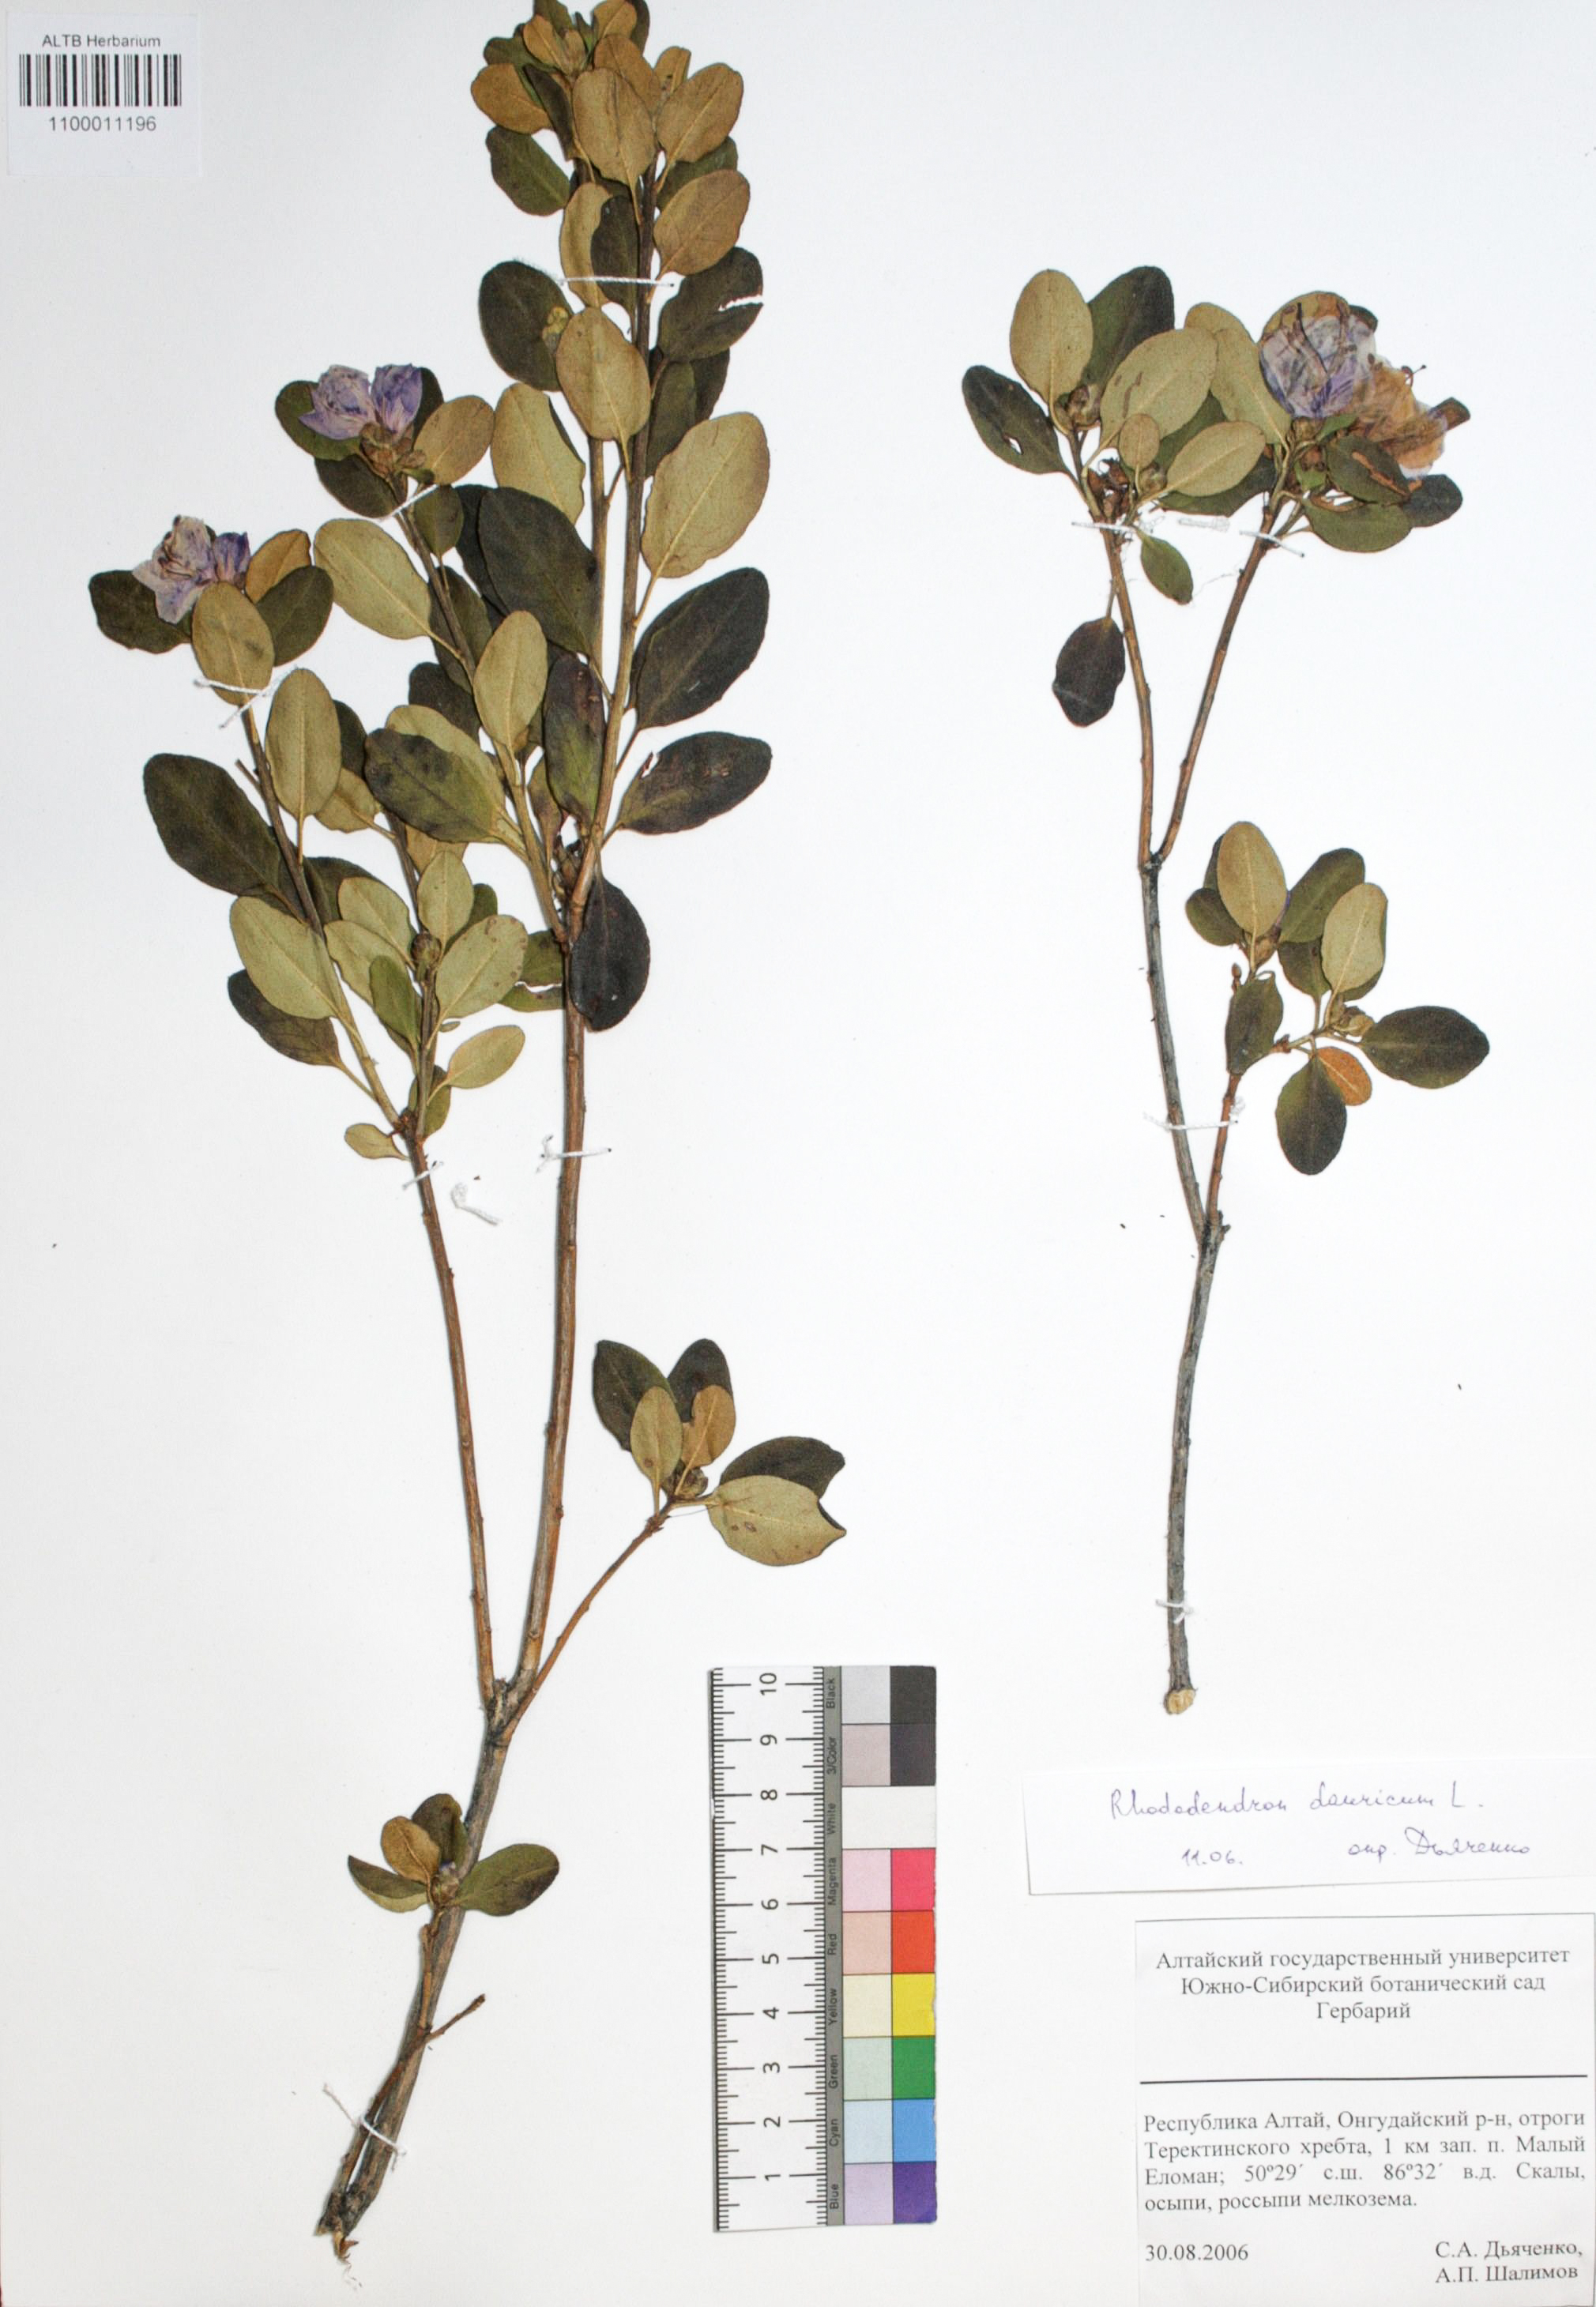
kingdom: Plantae
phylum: Tracheophyta
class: Magnoliopsida
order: Ericales
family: Ericaceae
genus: Rhododendron
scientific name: Rhododendron dahuricum
